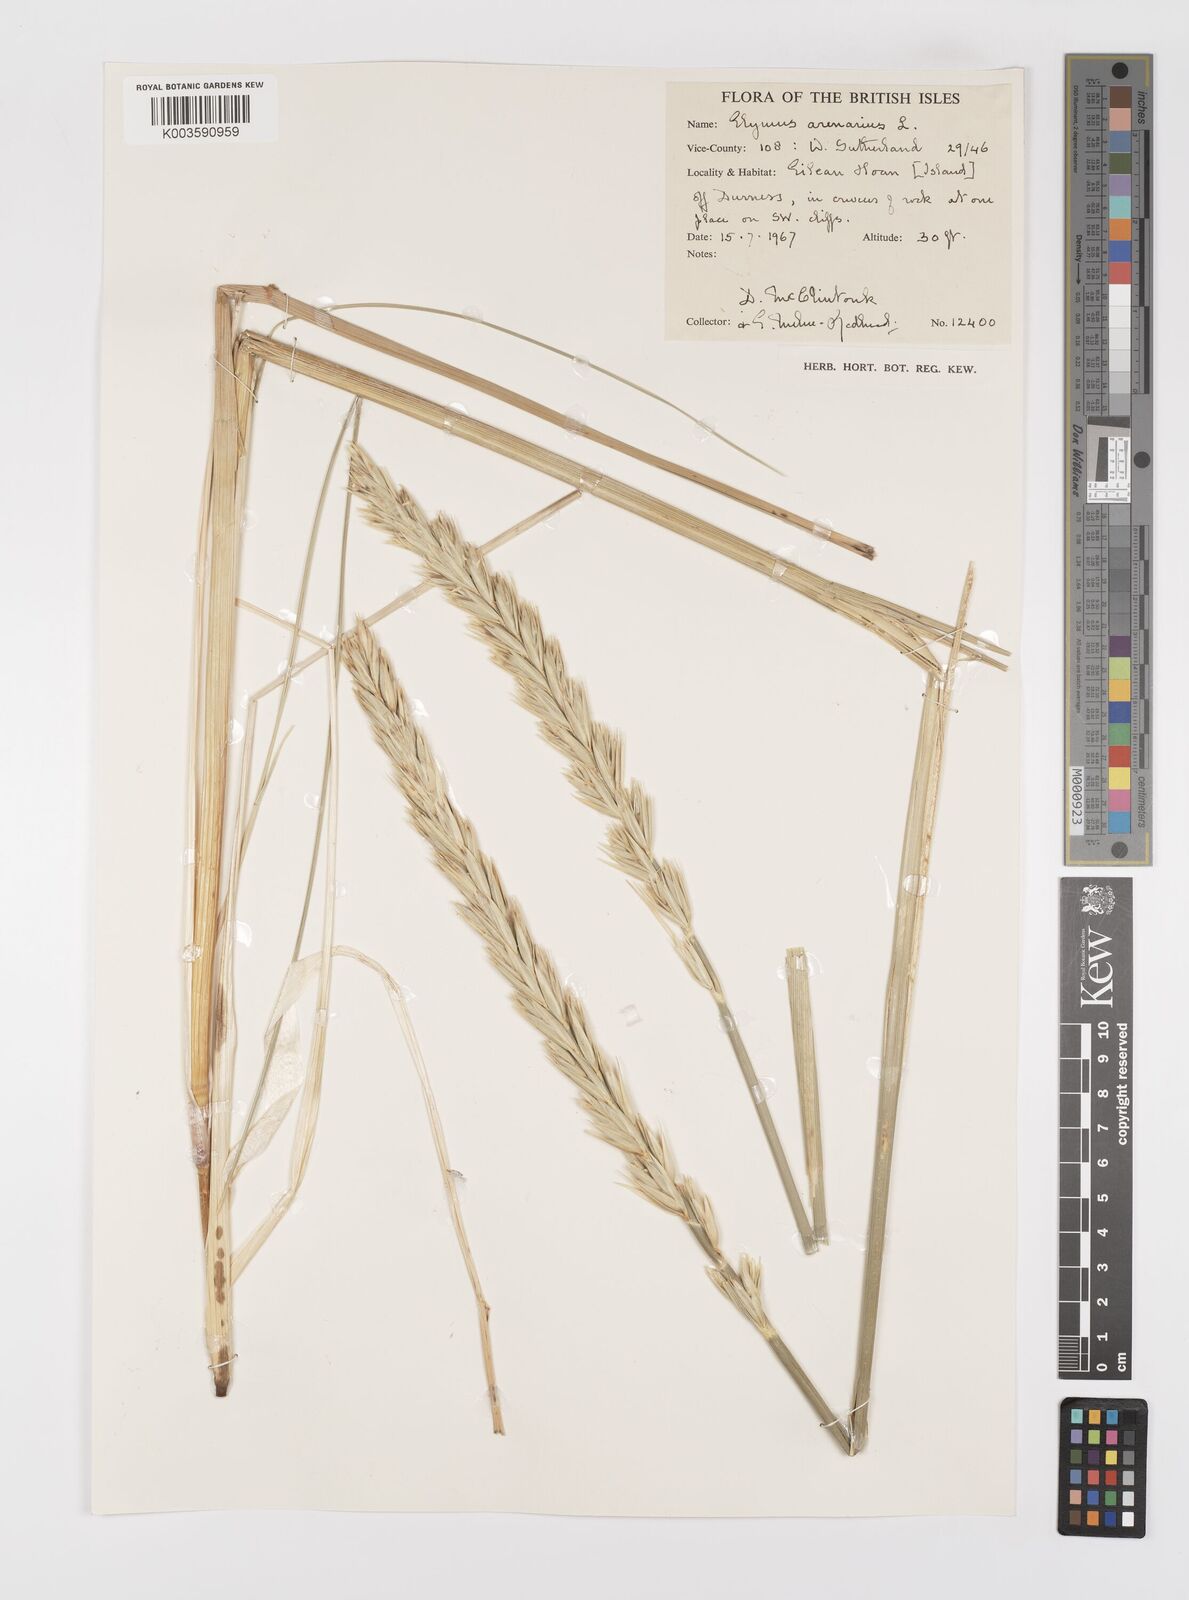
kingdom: Plantae
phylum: Tracheophyta
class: Liliopsida
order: Poales
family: Poaceae
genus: Leymus
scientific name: Leymus arenarius
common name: Lyme-grass
